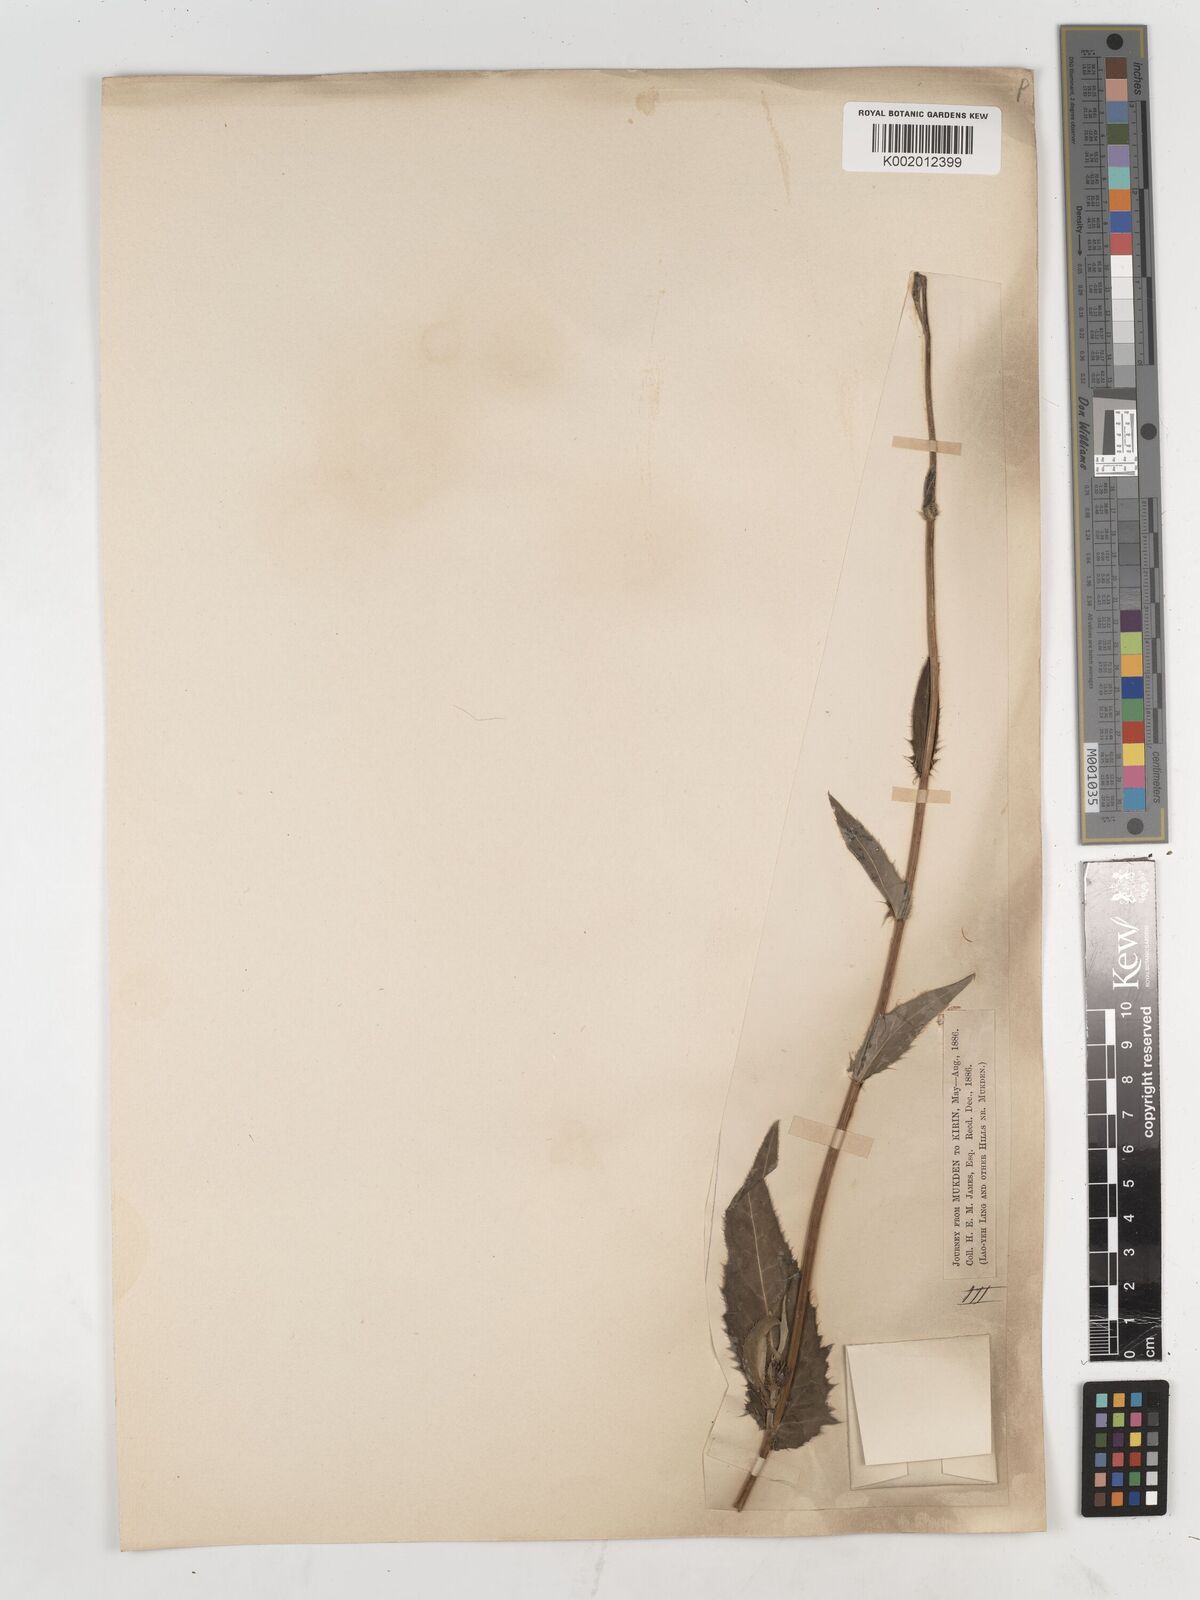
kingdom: Plantae
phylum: Tracheophyta
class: Magnoliopsida
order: Asterales
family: Asteraceae
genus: Cirsium
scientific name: Cirsium
